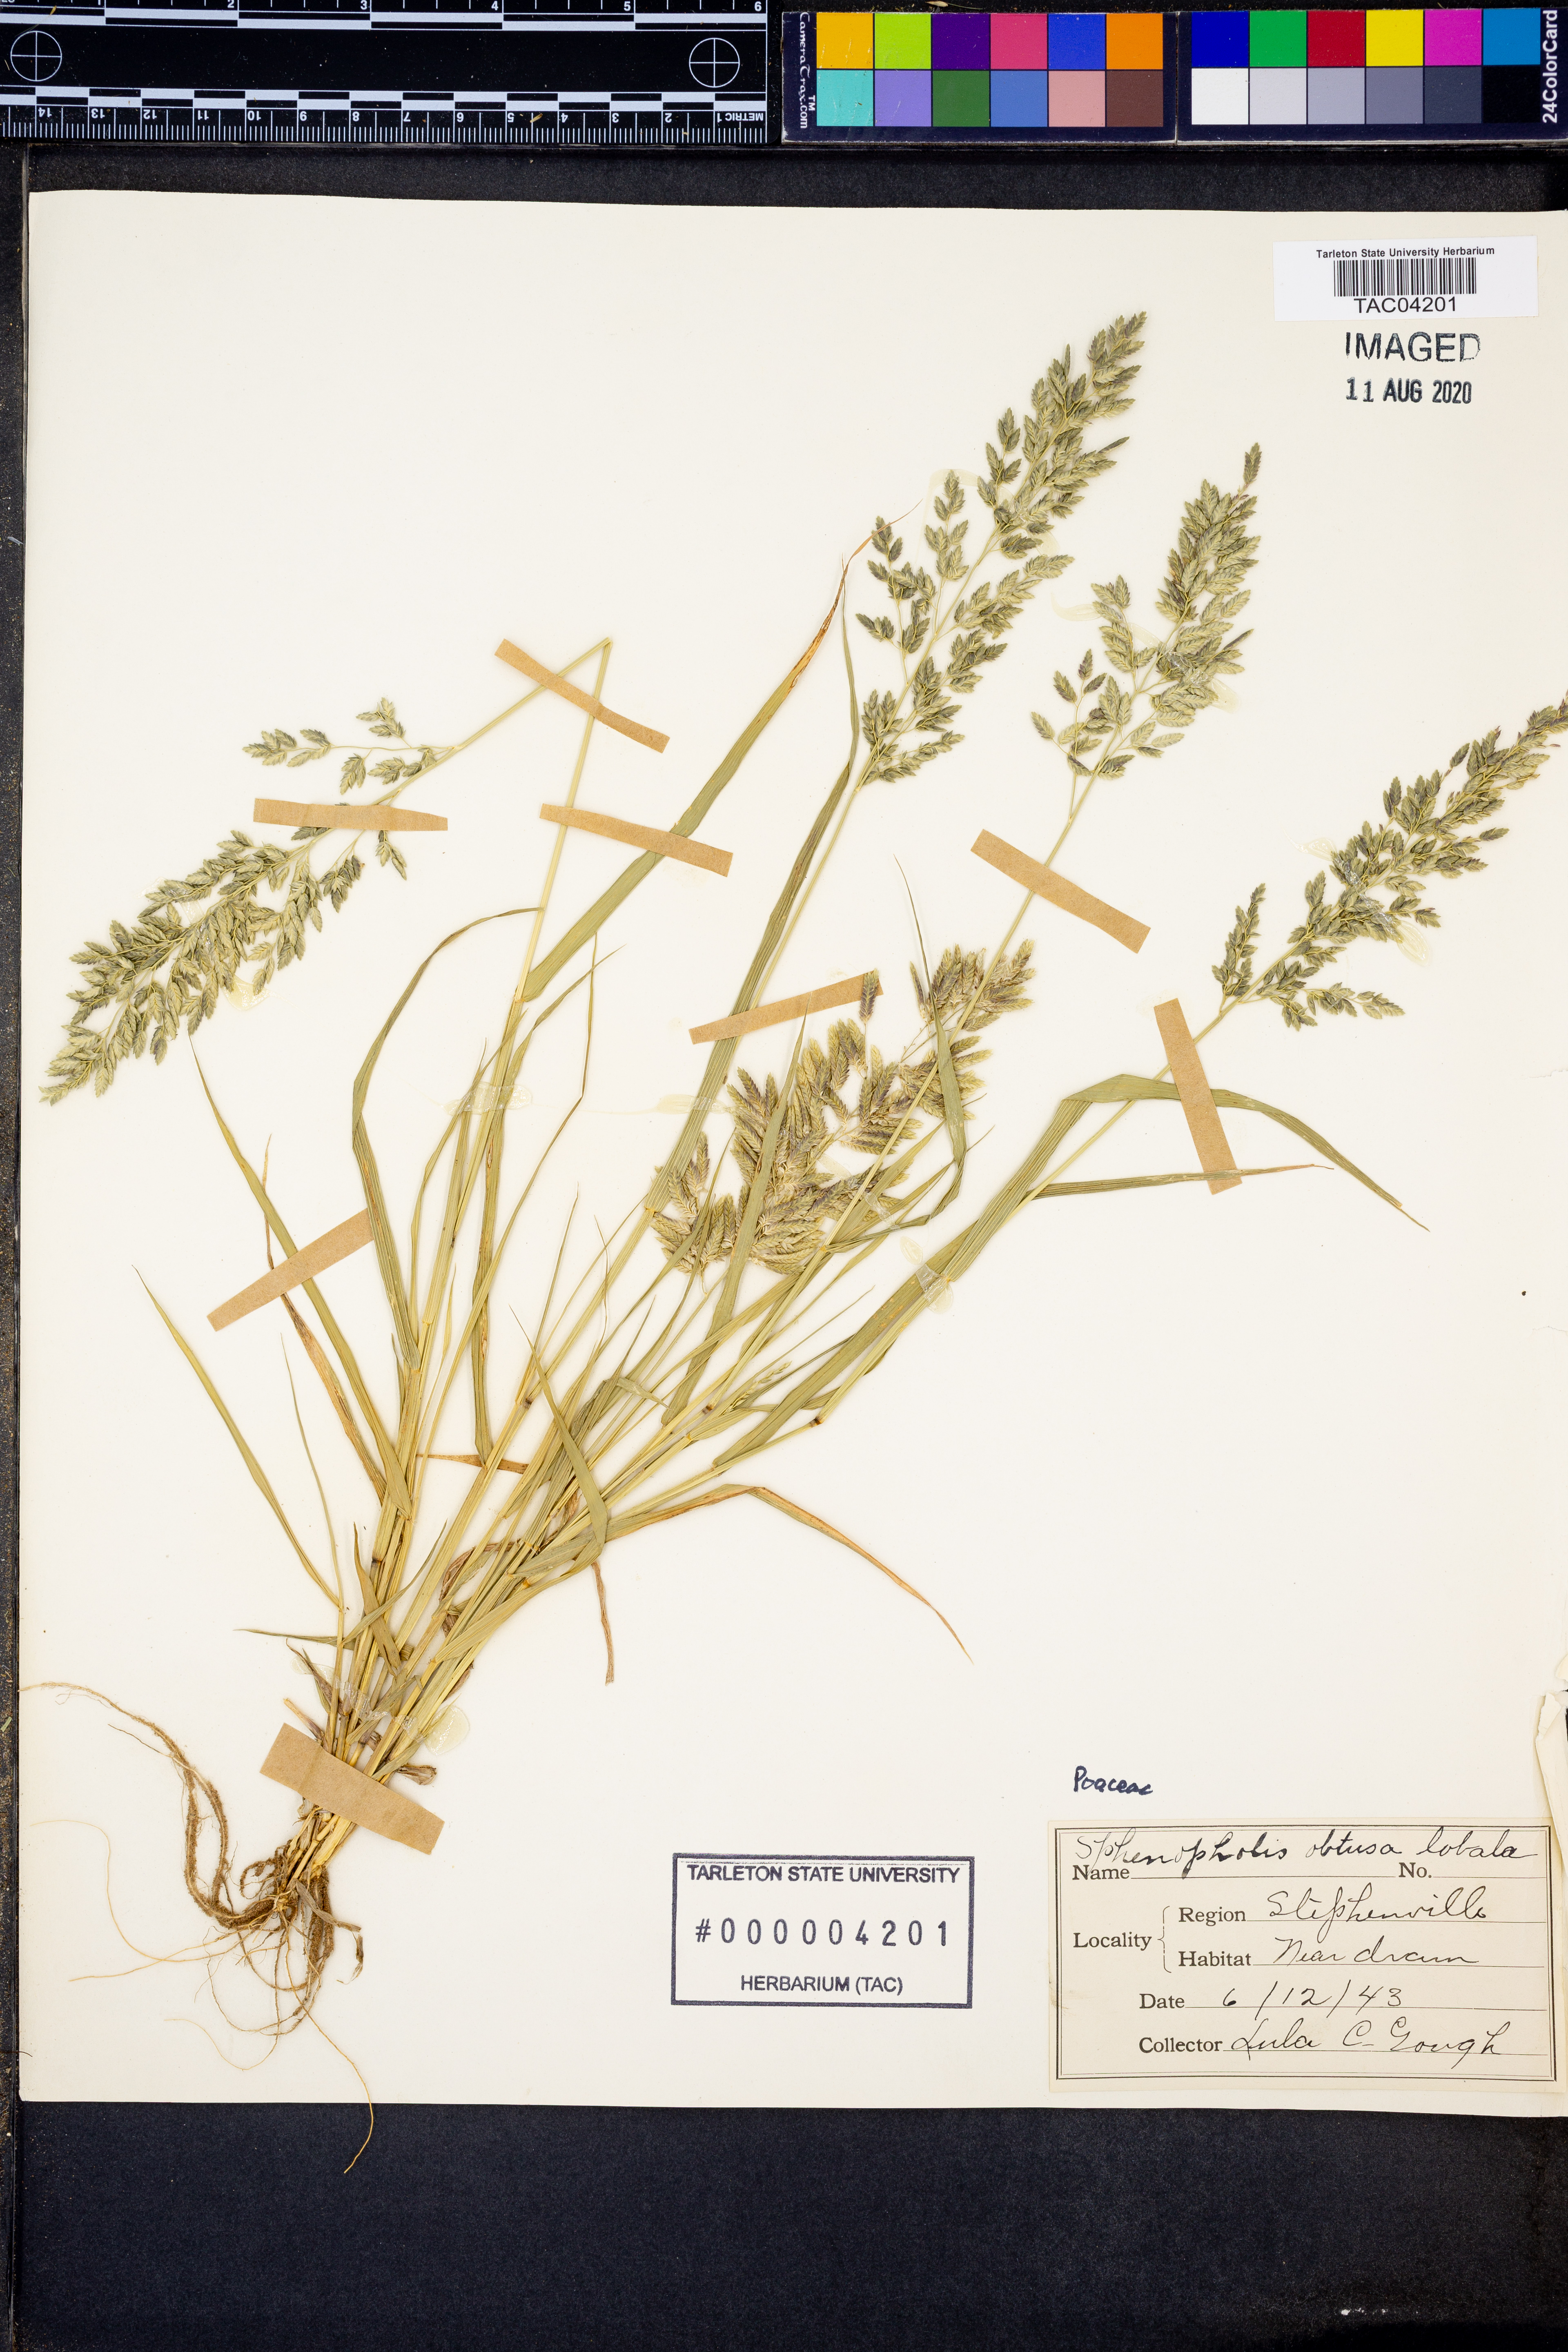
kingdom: Plantae
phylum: Tracheophyta
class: Liliopsida
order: Poales
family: Poaceae
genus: Sphenopholis
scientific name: Sphenopholis obtusata
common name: Prairie grass
